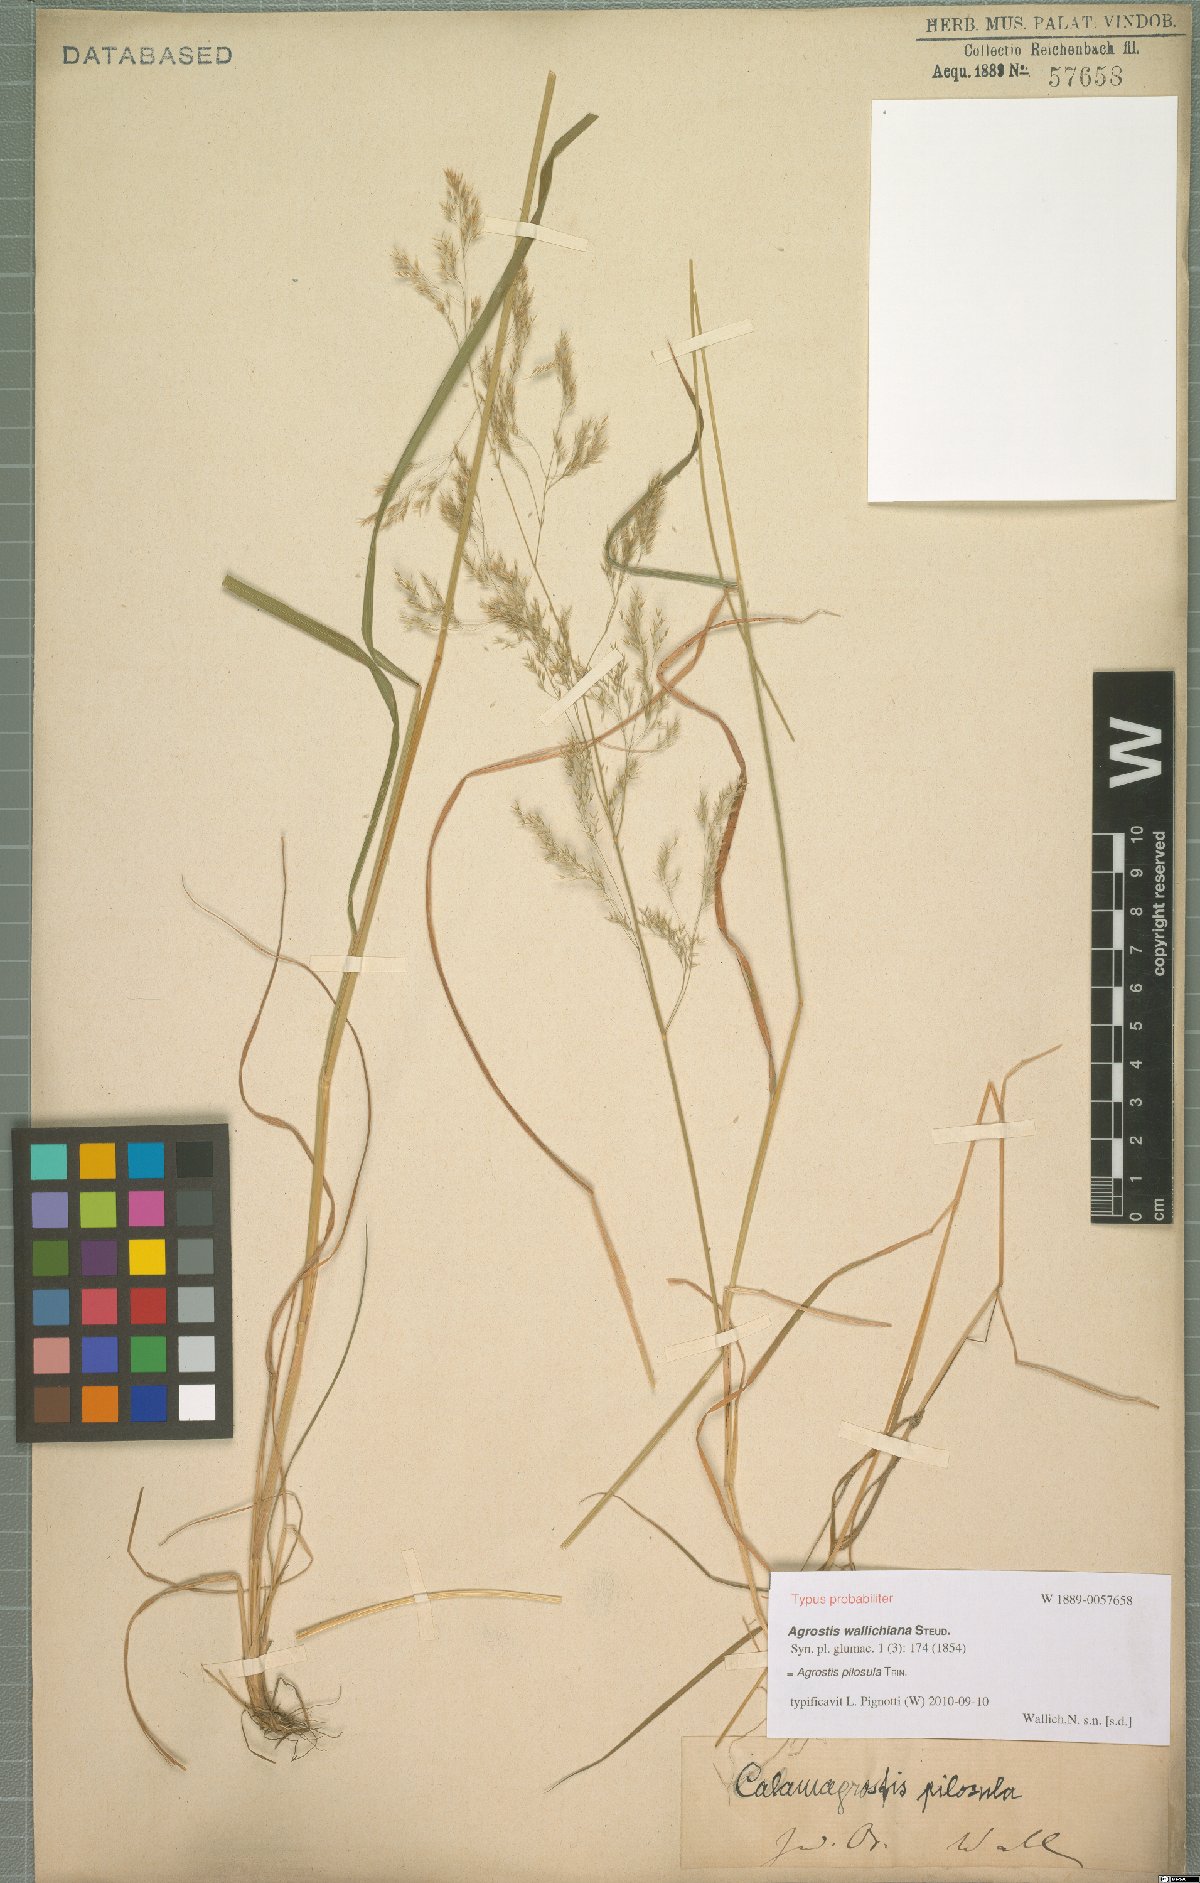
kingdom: Plantae
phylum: Tracheophyta
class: Liliopsida
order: Poales
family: Poaceae
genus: Agrostis
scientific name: Agrostis pilosula
